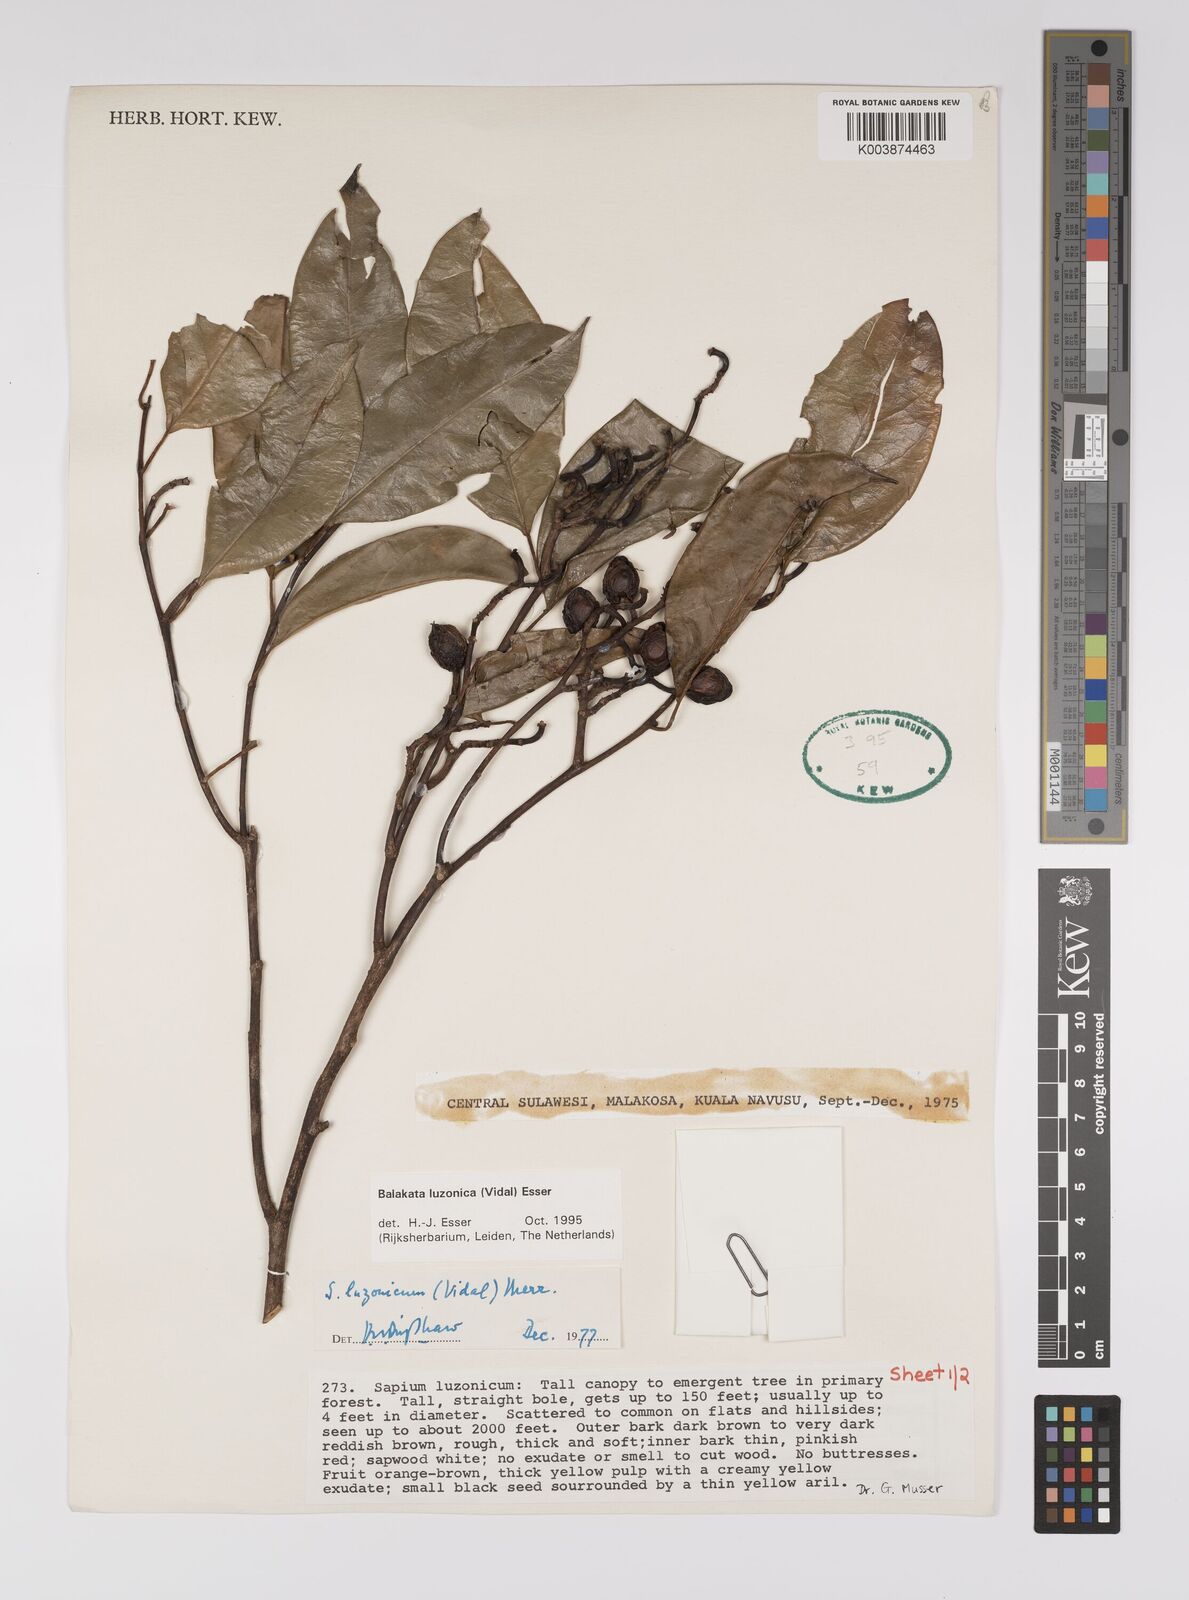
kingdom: Plantae
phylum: Tracheophyta
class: Magnoliopsida
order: Malpighiales
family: Euphorbiaceae
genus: Balakata
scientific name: Balakata luzonica
